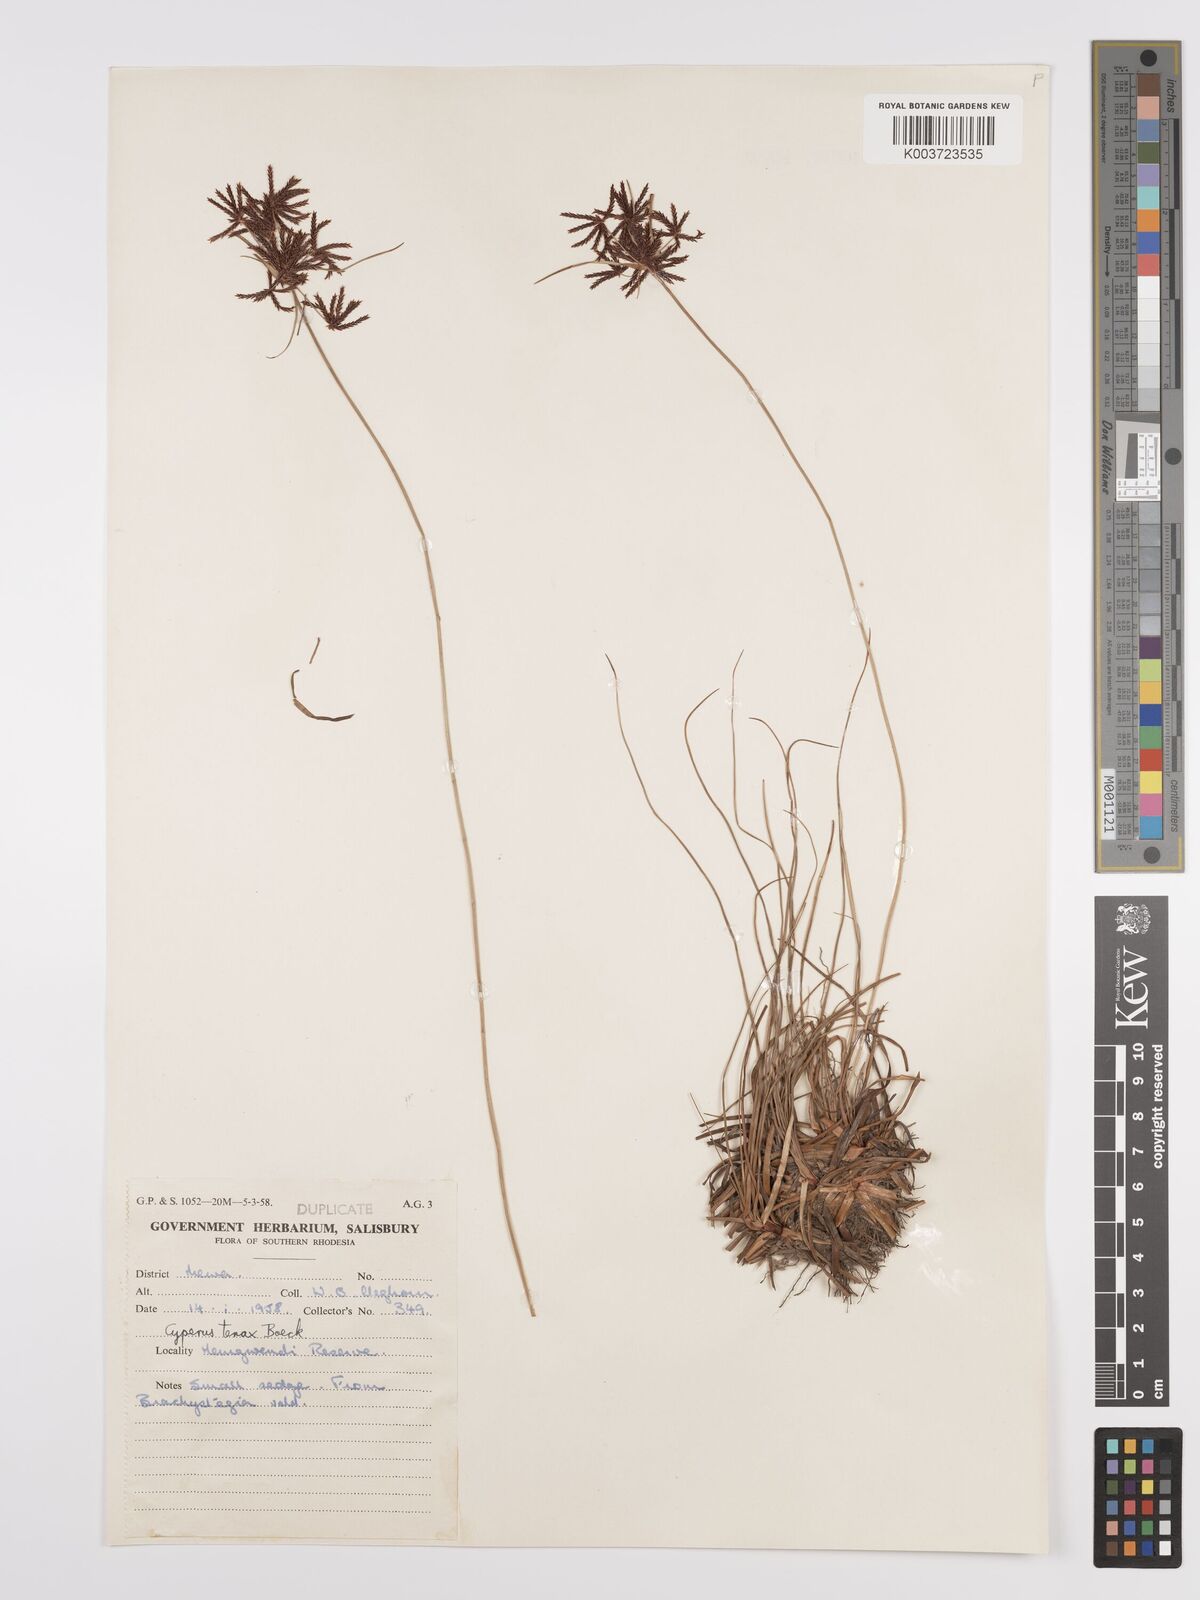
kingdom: Plantae
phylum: Tracheophyta
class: Liliopsida
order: Poales
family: Cyperaceae
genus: Cyperus
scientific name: Cyperus tenax
